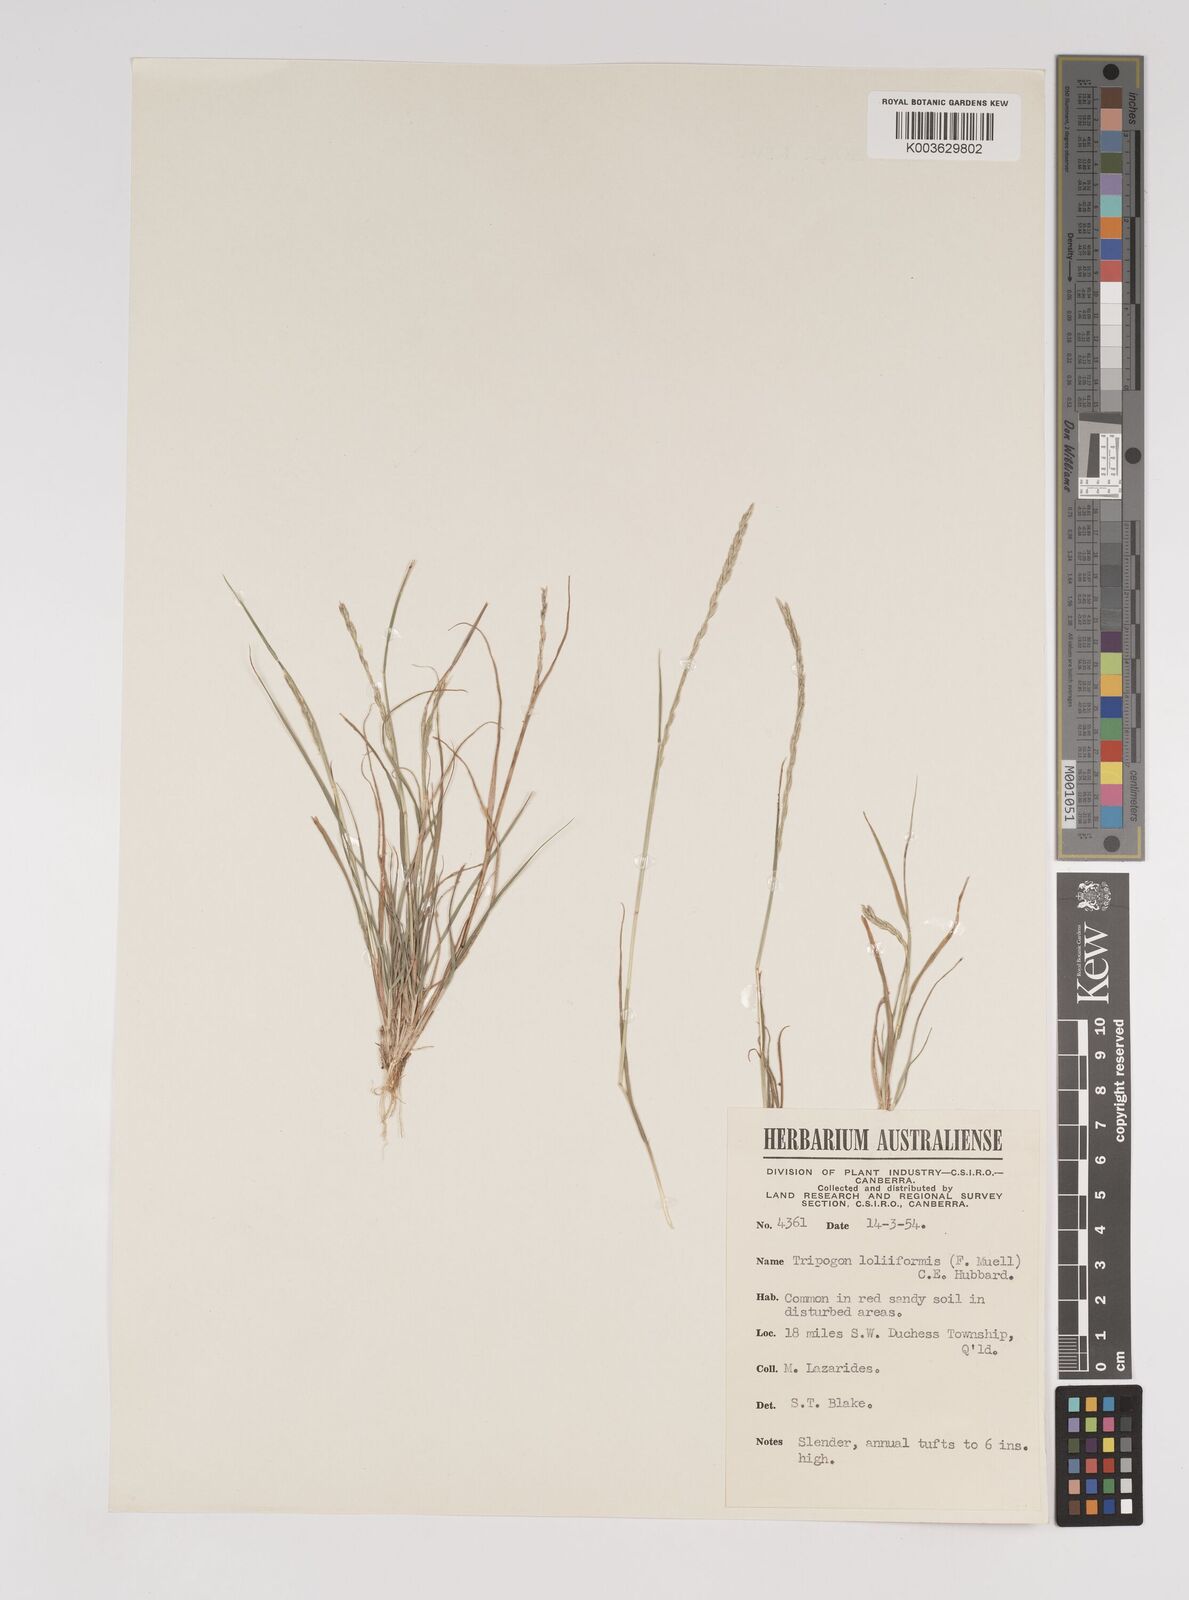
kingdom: Plantae
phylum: Tracheophyta
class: Liliopsida
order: Poales
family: Poaceae
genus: Tripogonella
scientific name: Tripogonella loliiformis
